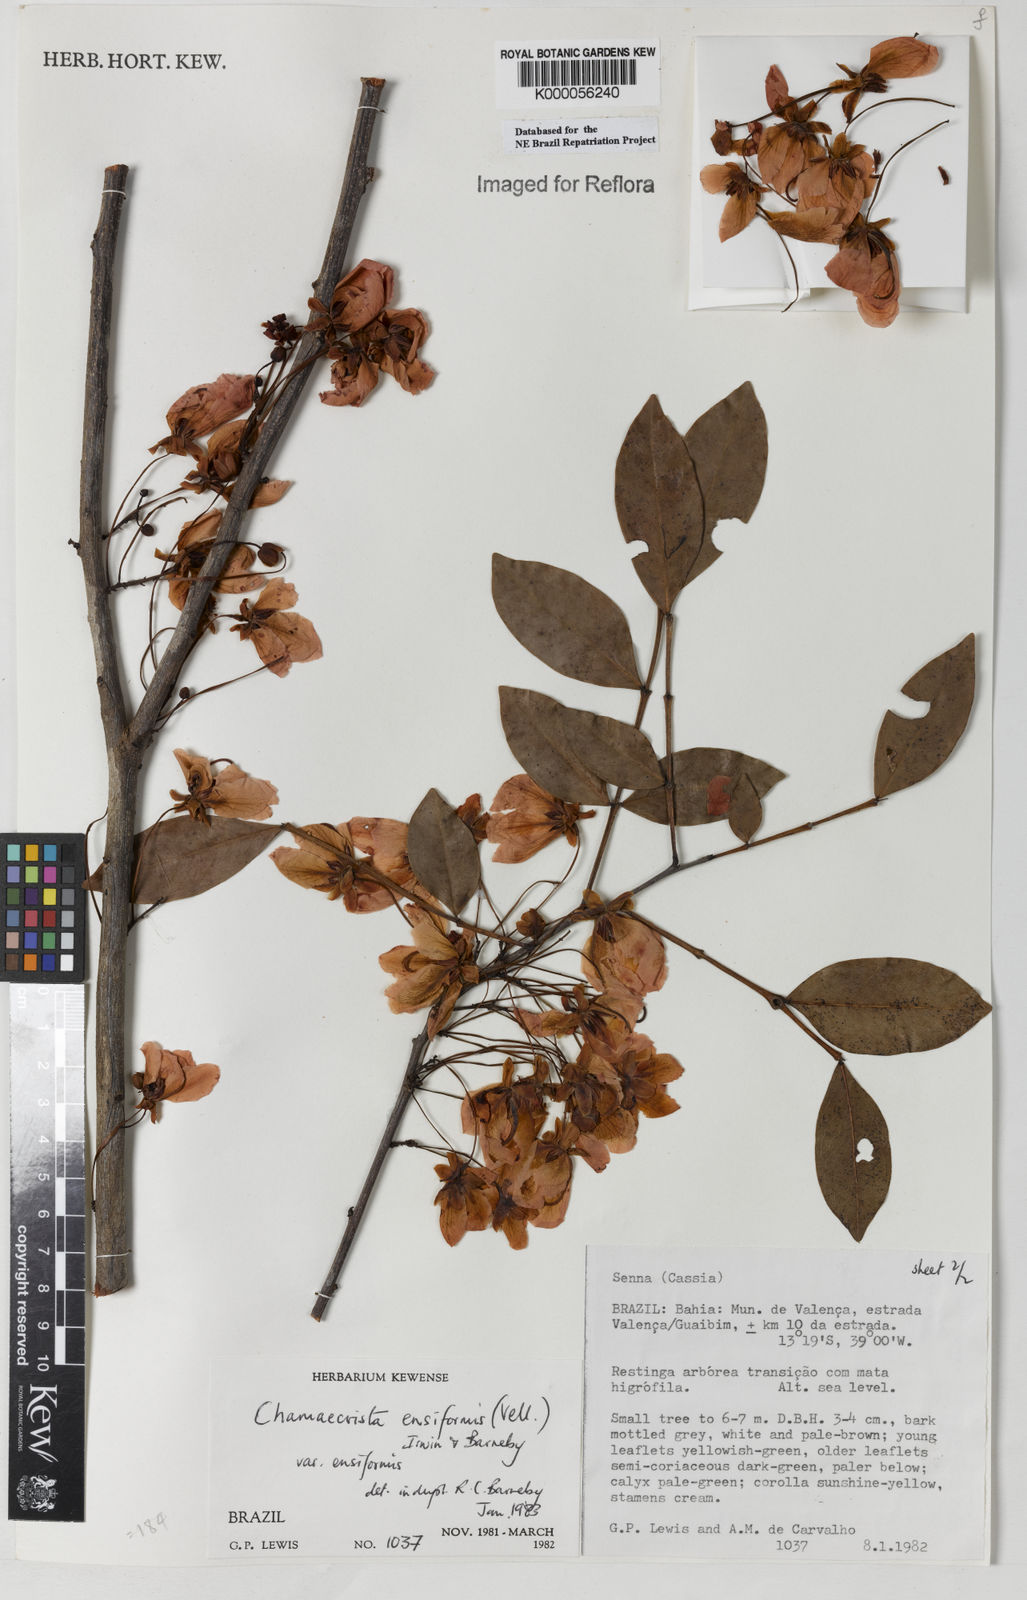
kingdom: Plantae
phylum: Tracheophyta
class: Magnoliopsida
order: Fabales
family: Fabaceae
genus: Chamaecrista
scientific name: Chamaecrista ensiformis
